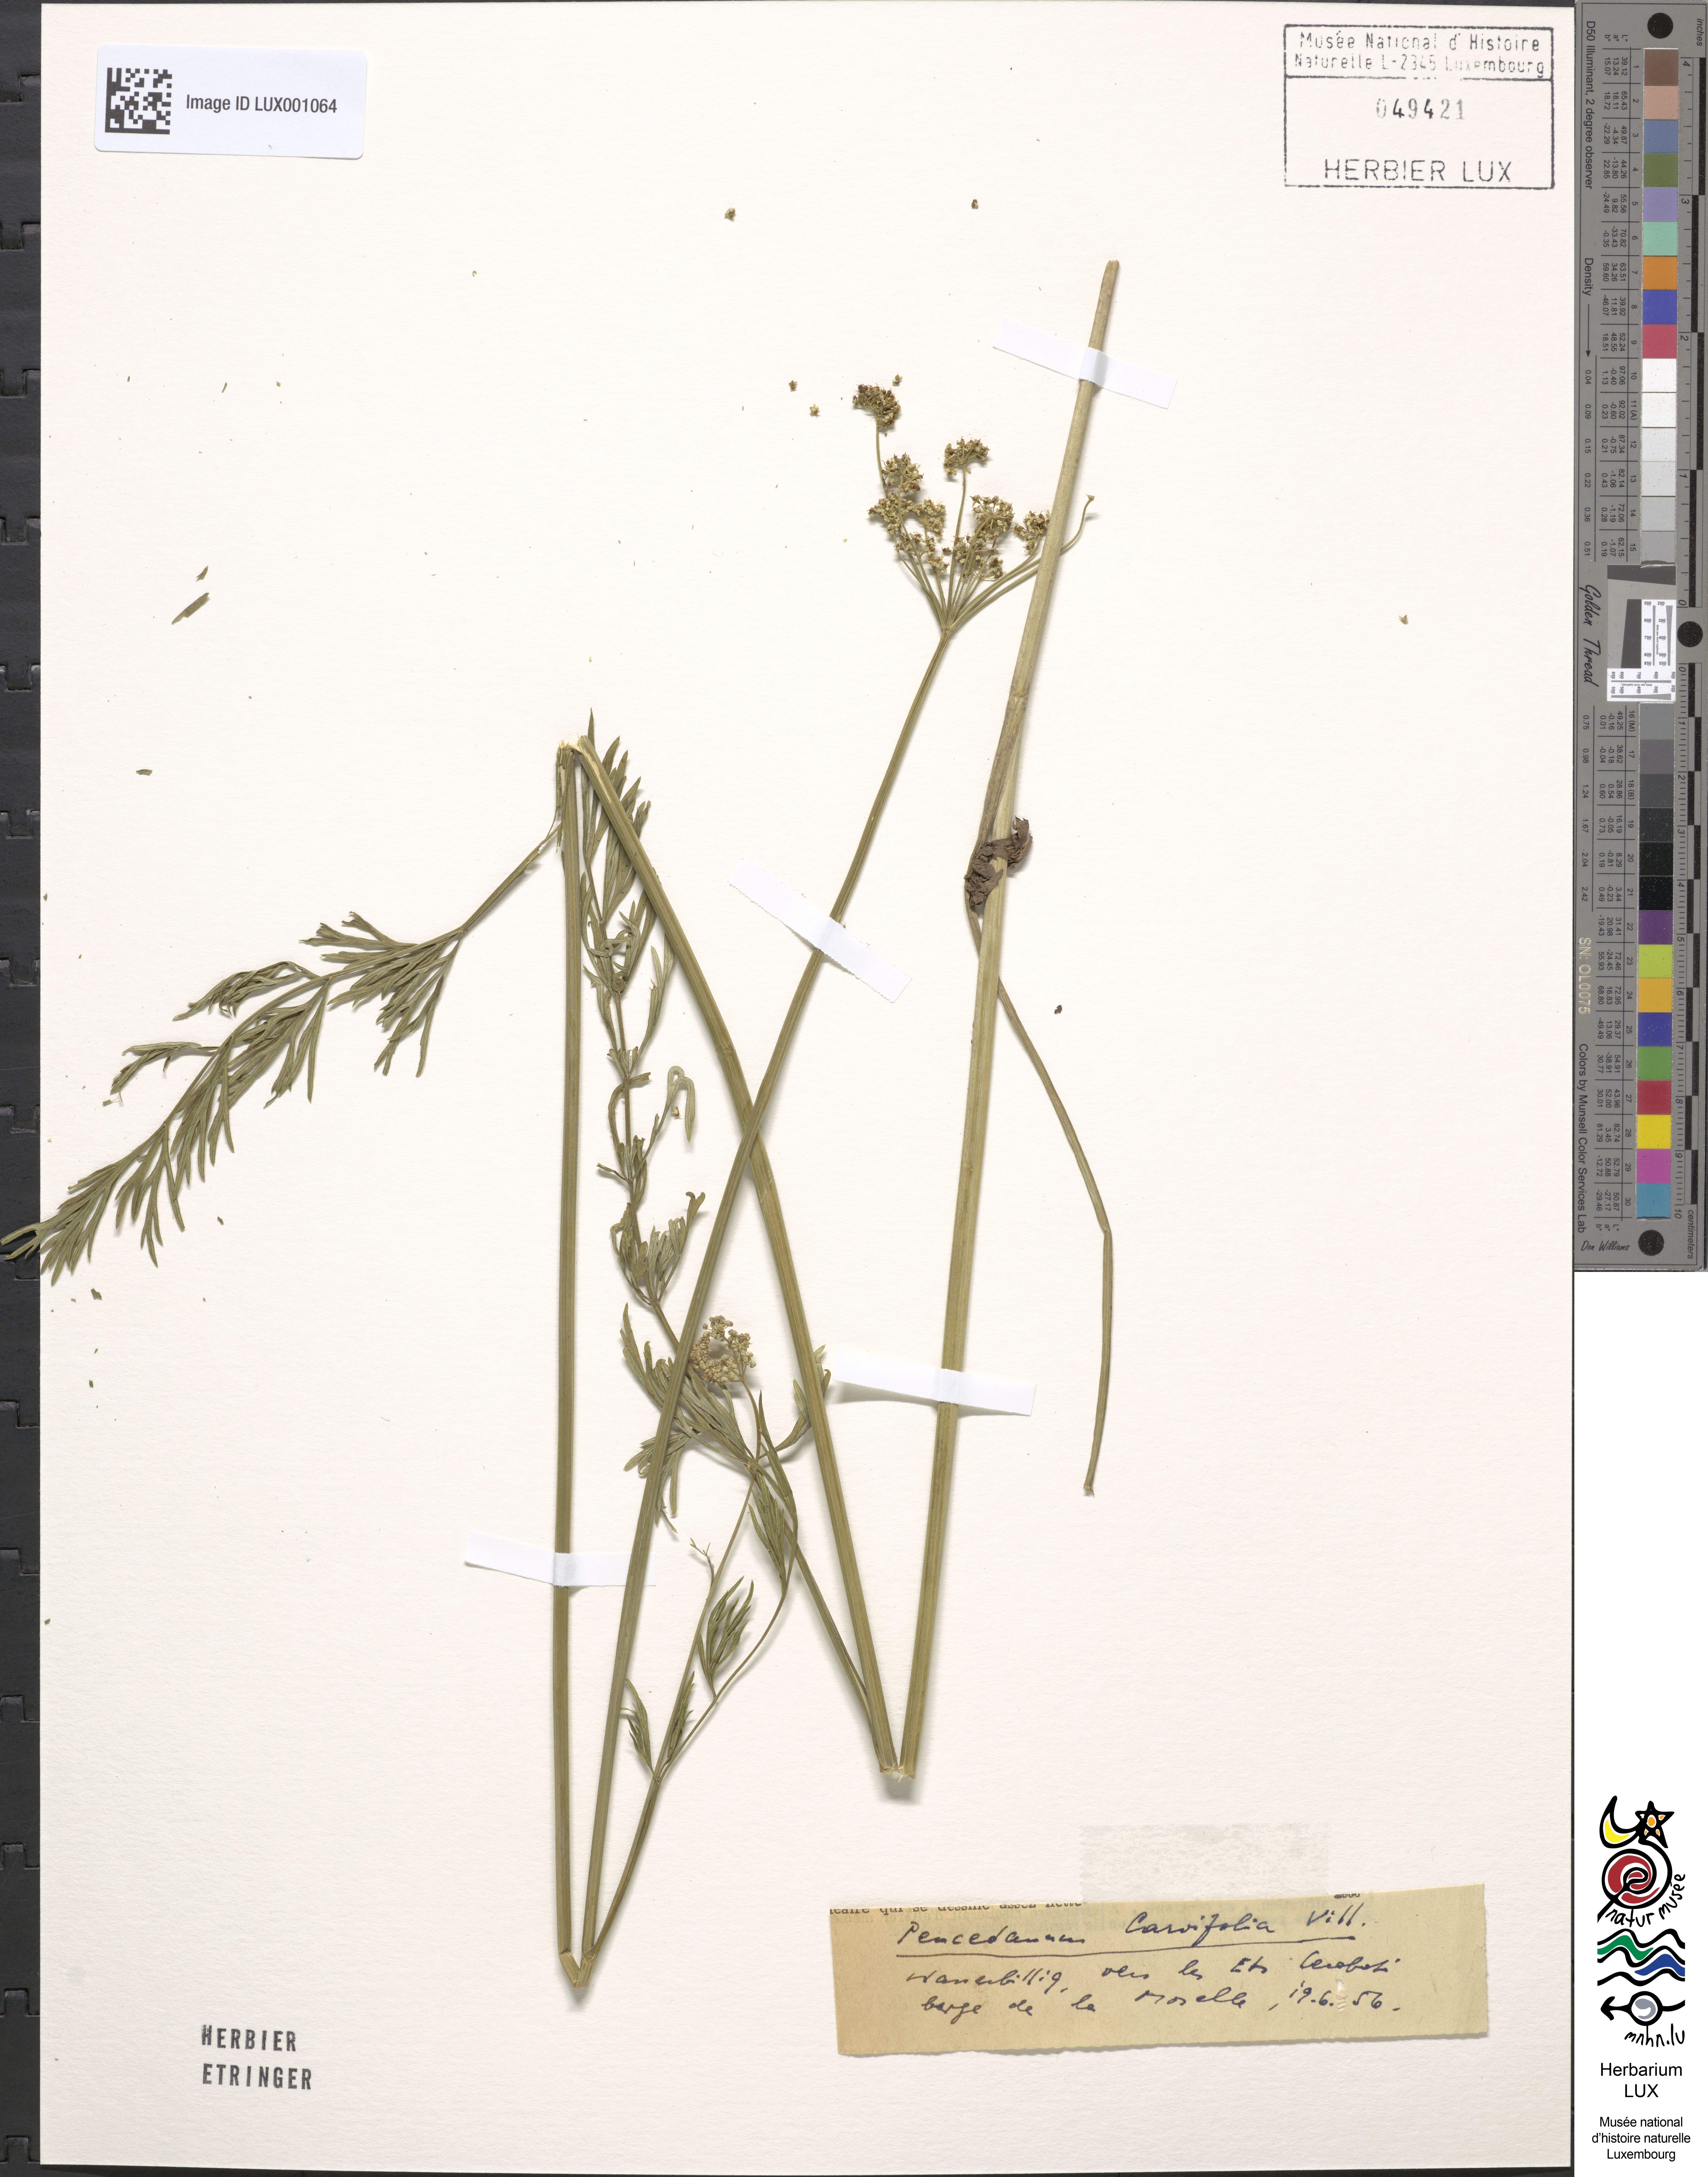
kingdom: Plantae
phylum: Tracheophyta
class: Magnoliopsida
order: Apiales
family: Apiaceae
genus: Dichoropetalum
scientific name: Dichoropetalum carvifolia
